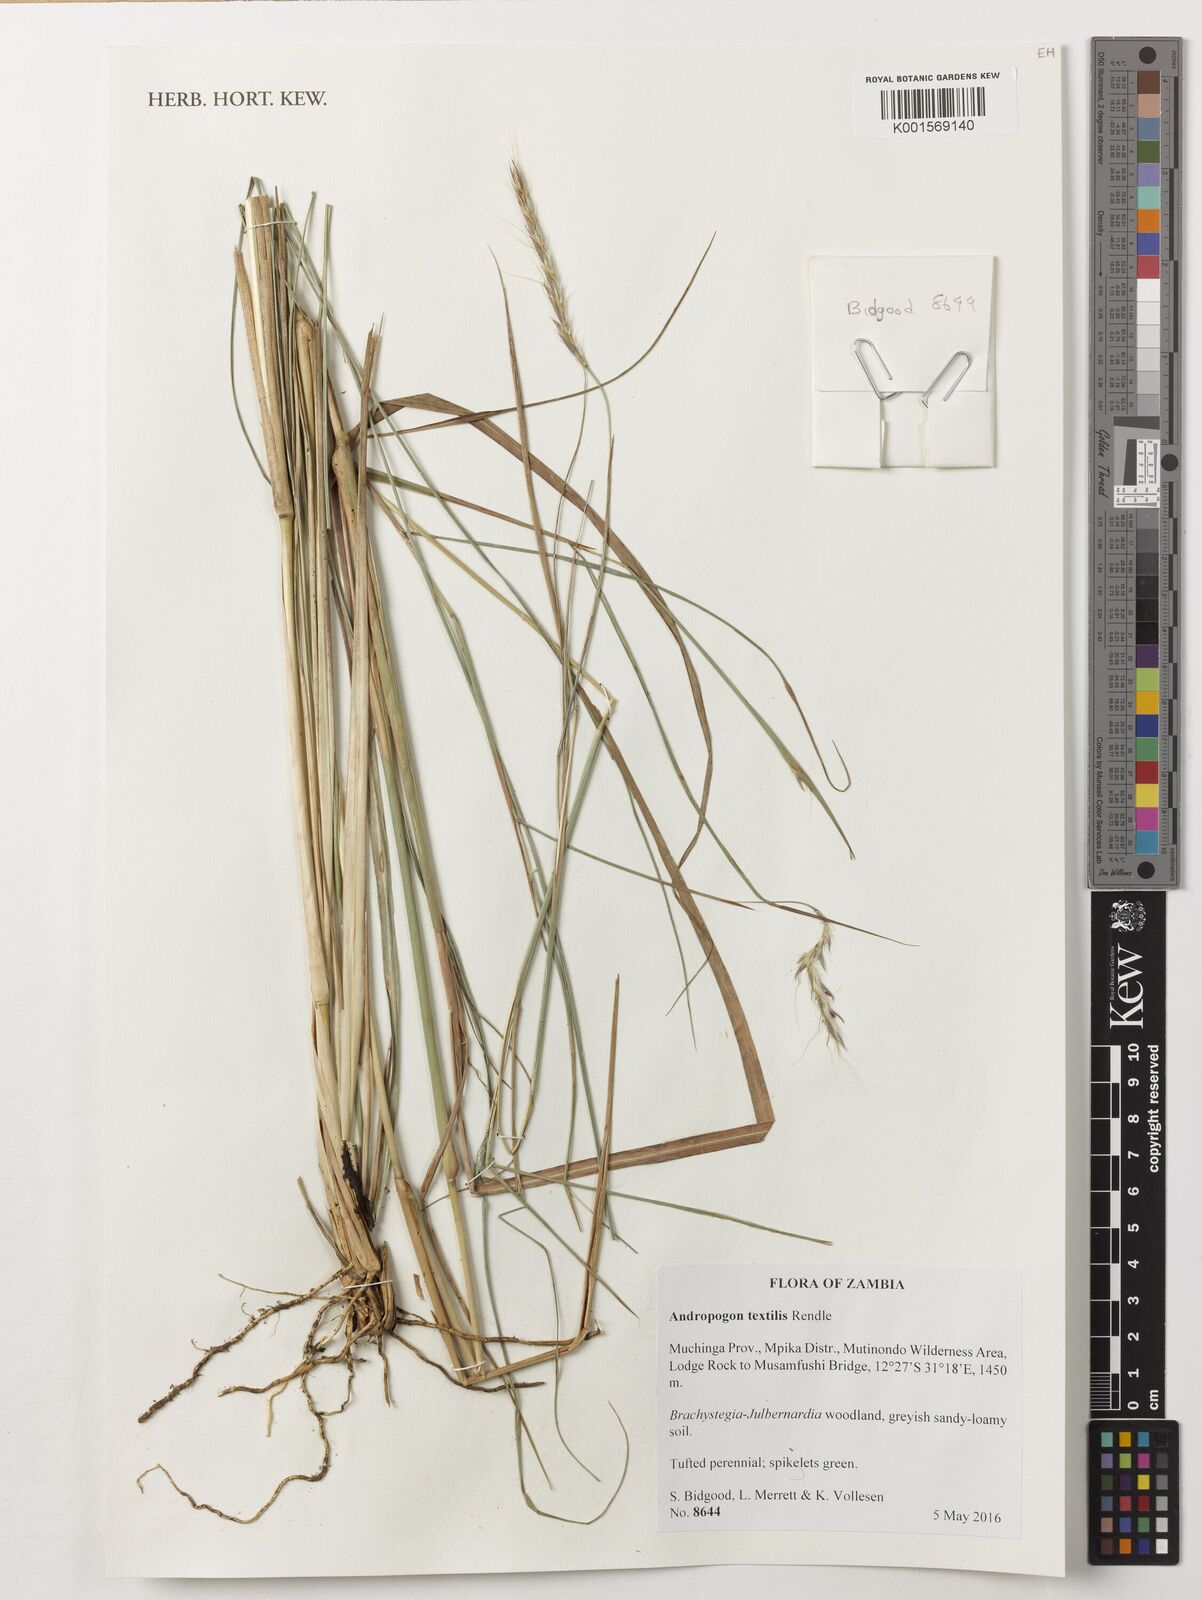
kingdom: Plantae
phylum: Tracheophyta
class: Liliopsida
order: Poales
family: Poaceae
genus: Andropogon
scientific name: Andropogon textilis
